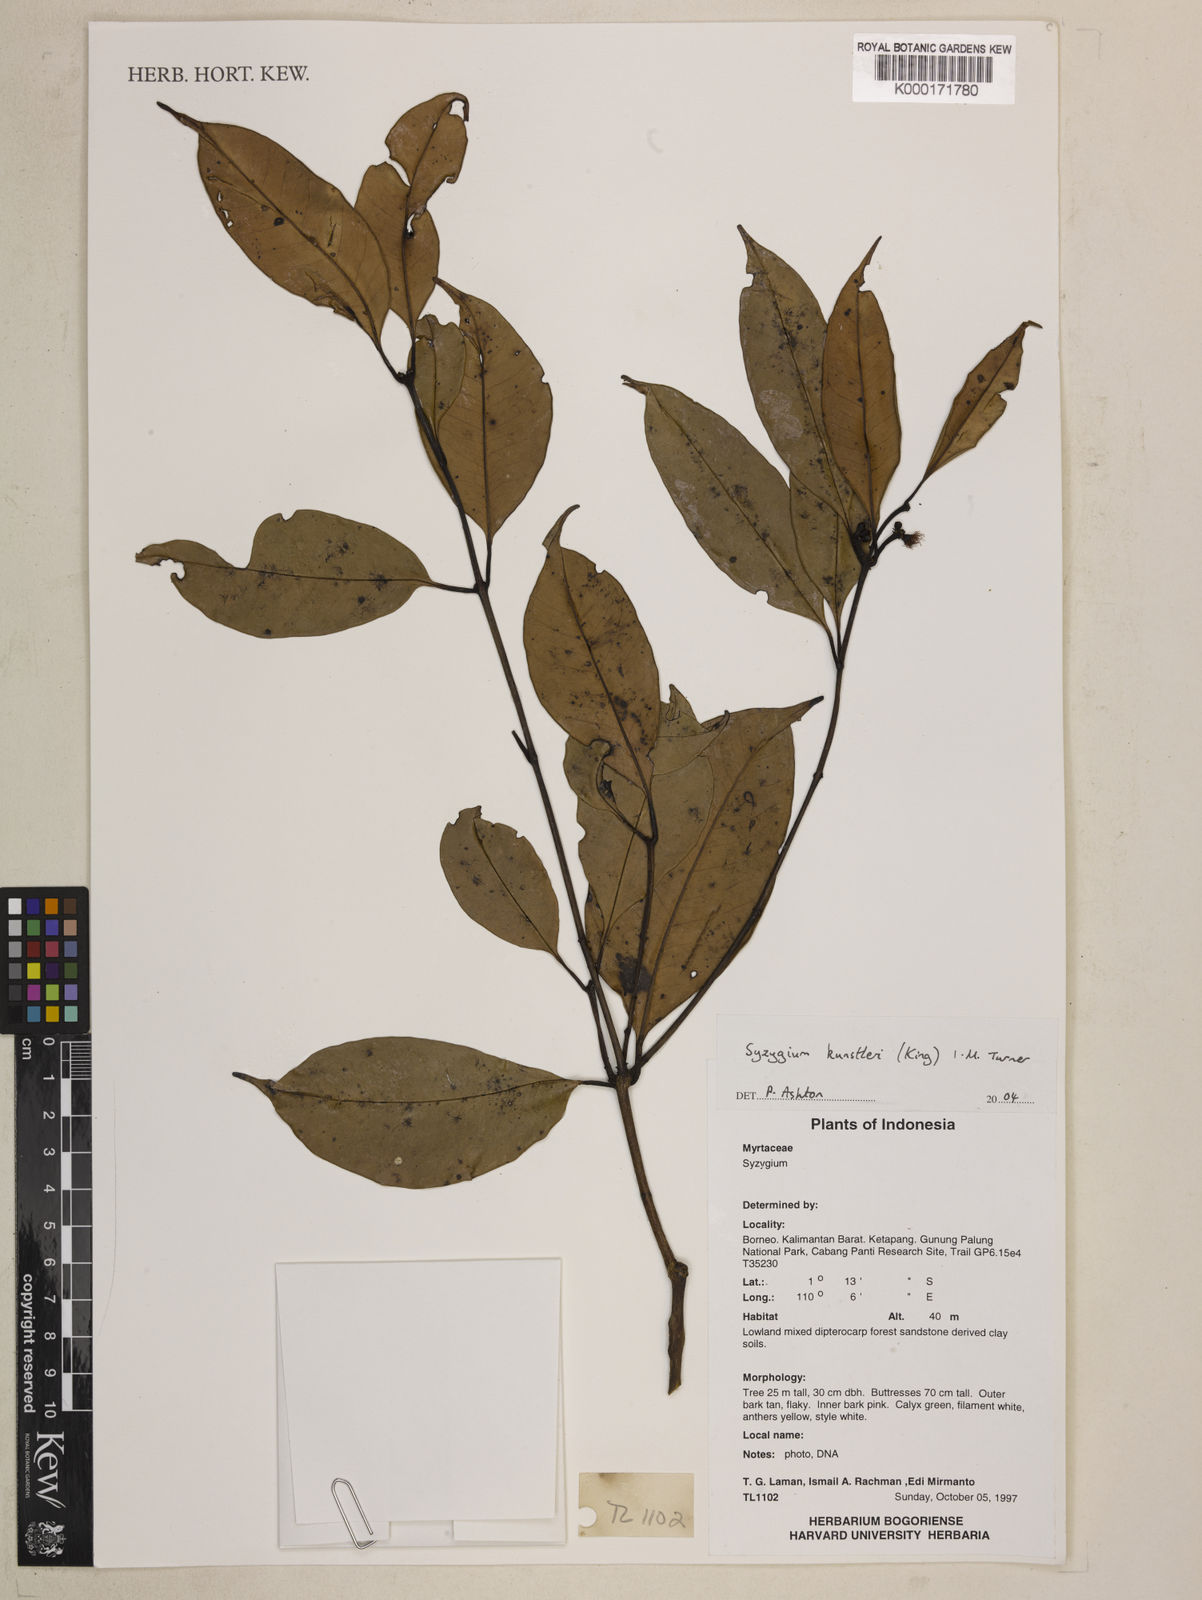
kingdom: Plantae
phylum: Tracheophyta
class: Magnoliopsida
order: Myrtales
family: Myrtaceae
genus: Syzygium
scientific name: Syzygium
